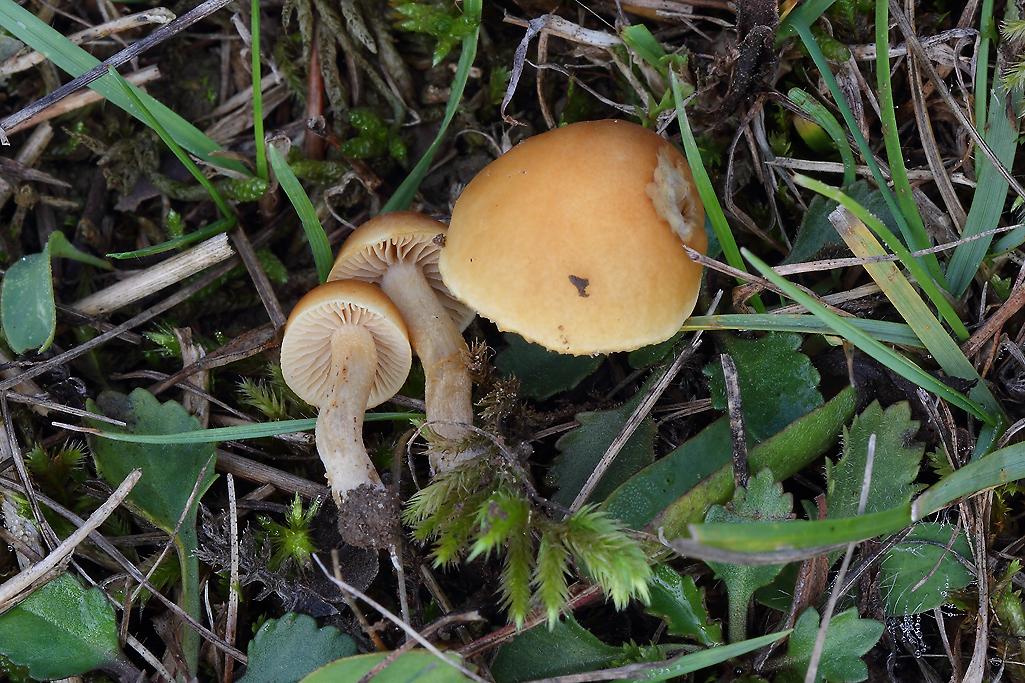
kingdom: Fungi
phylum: Basidiomycota
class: Agaricomycetes
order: Agaricales
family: Strophariaceae
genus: Agrocybe
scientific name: Agrocybe vervacti
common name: lav agerhat
